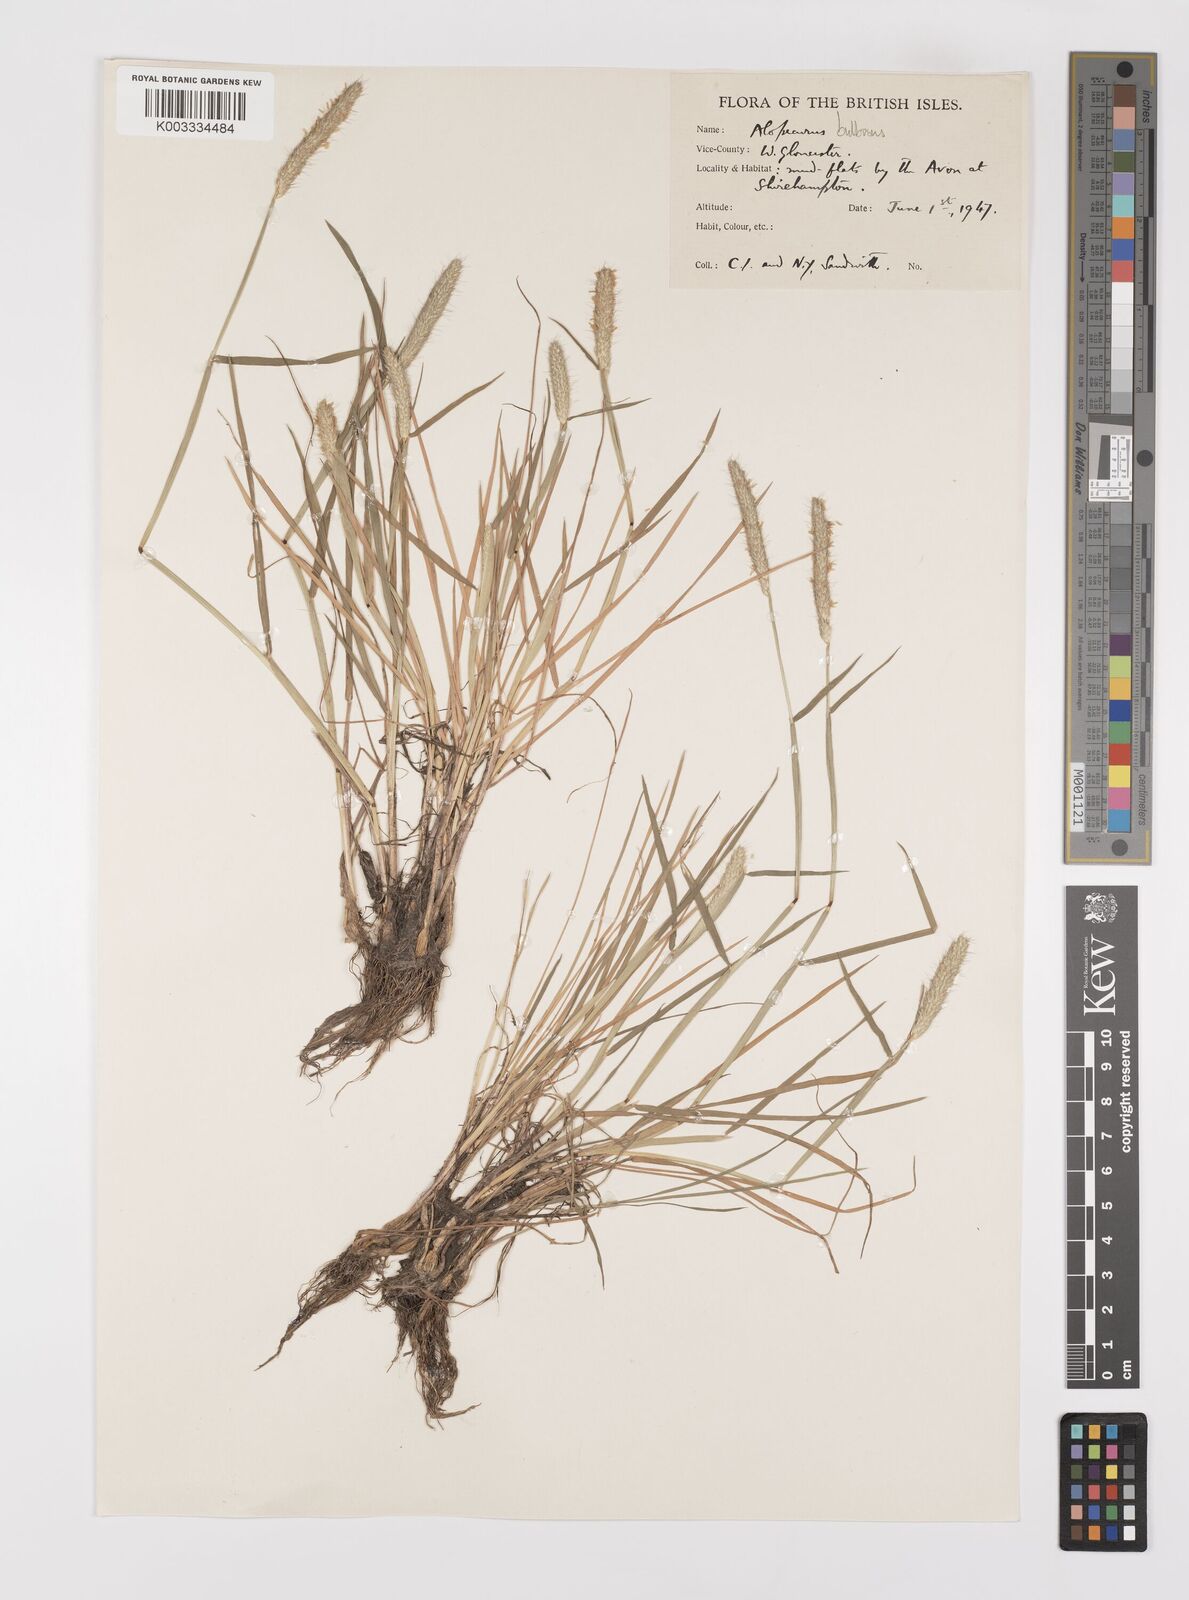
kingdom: Plantae
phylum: Tracheophyta
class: Liliopsida
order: Poales
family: Poaceae
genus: Alopecurus
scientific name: Alopecurus bulbosus
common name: Bulbous foxtail
